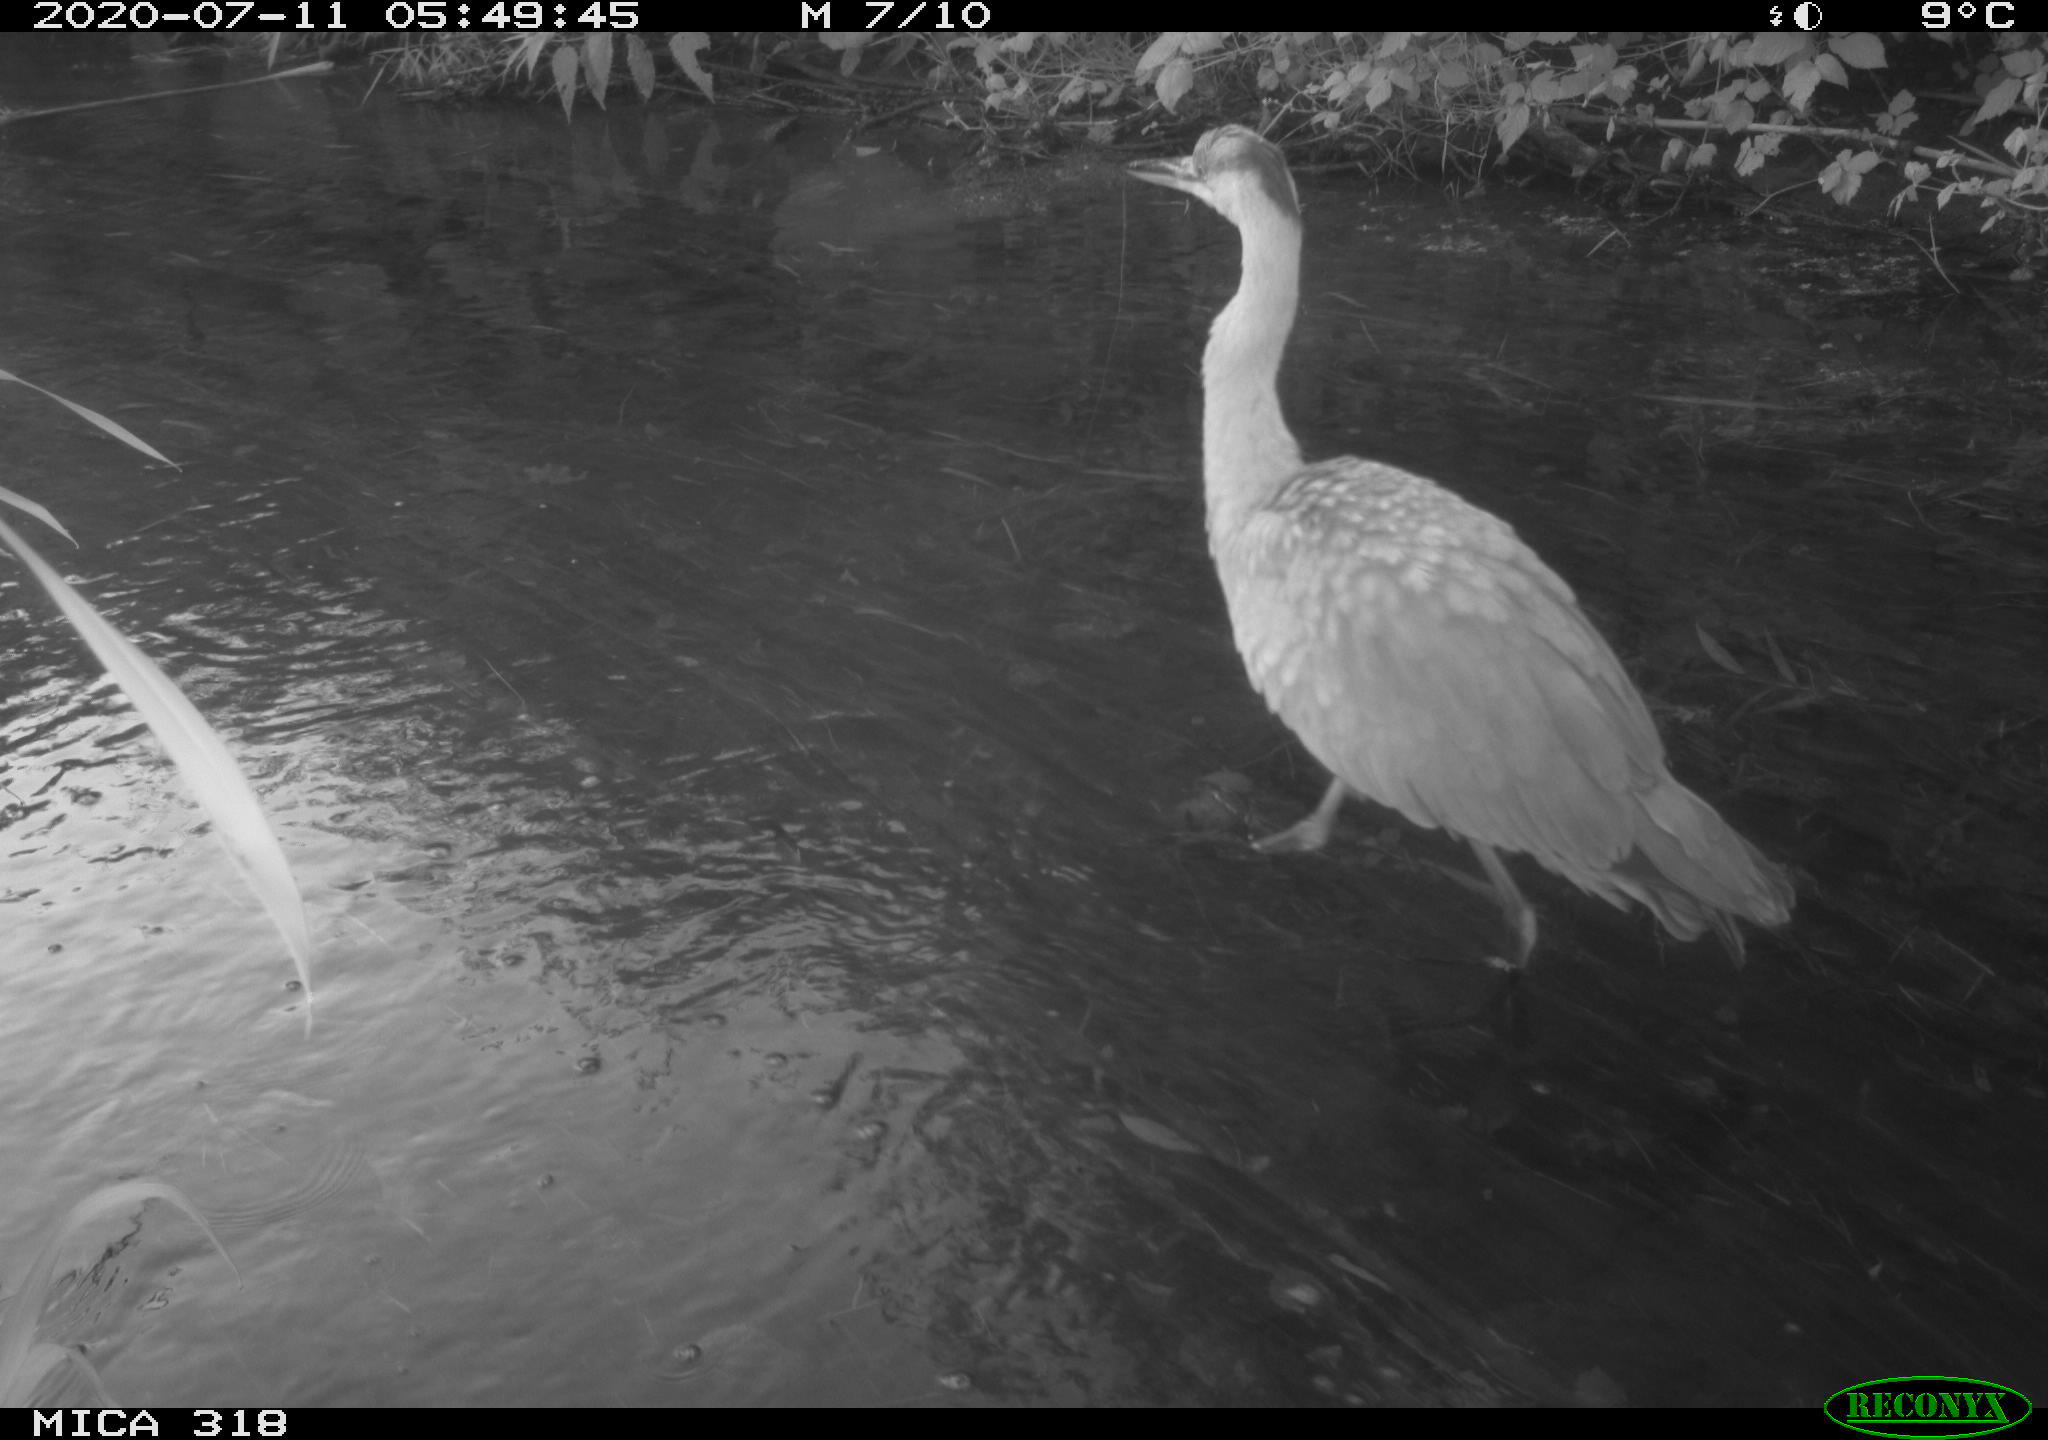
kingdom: Animalia
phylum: Chordata
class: Aves
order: Pelecaniformes
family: Ardeidae
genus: Ardea
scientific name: Ardea cinerea
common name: Grey heron
